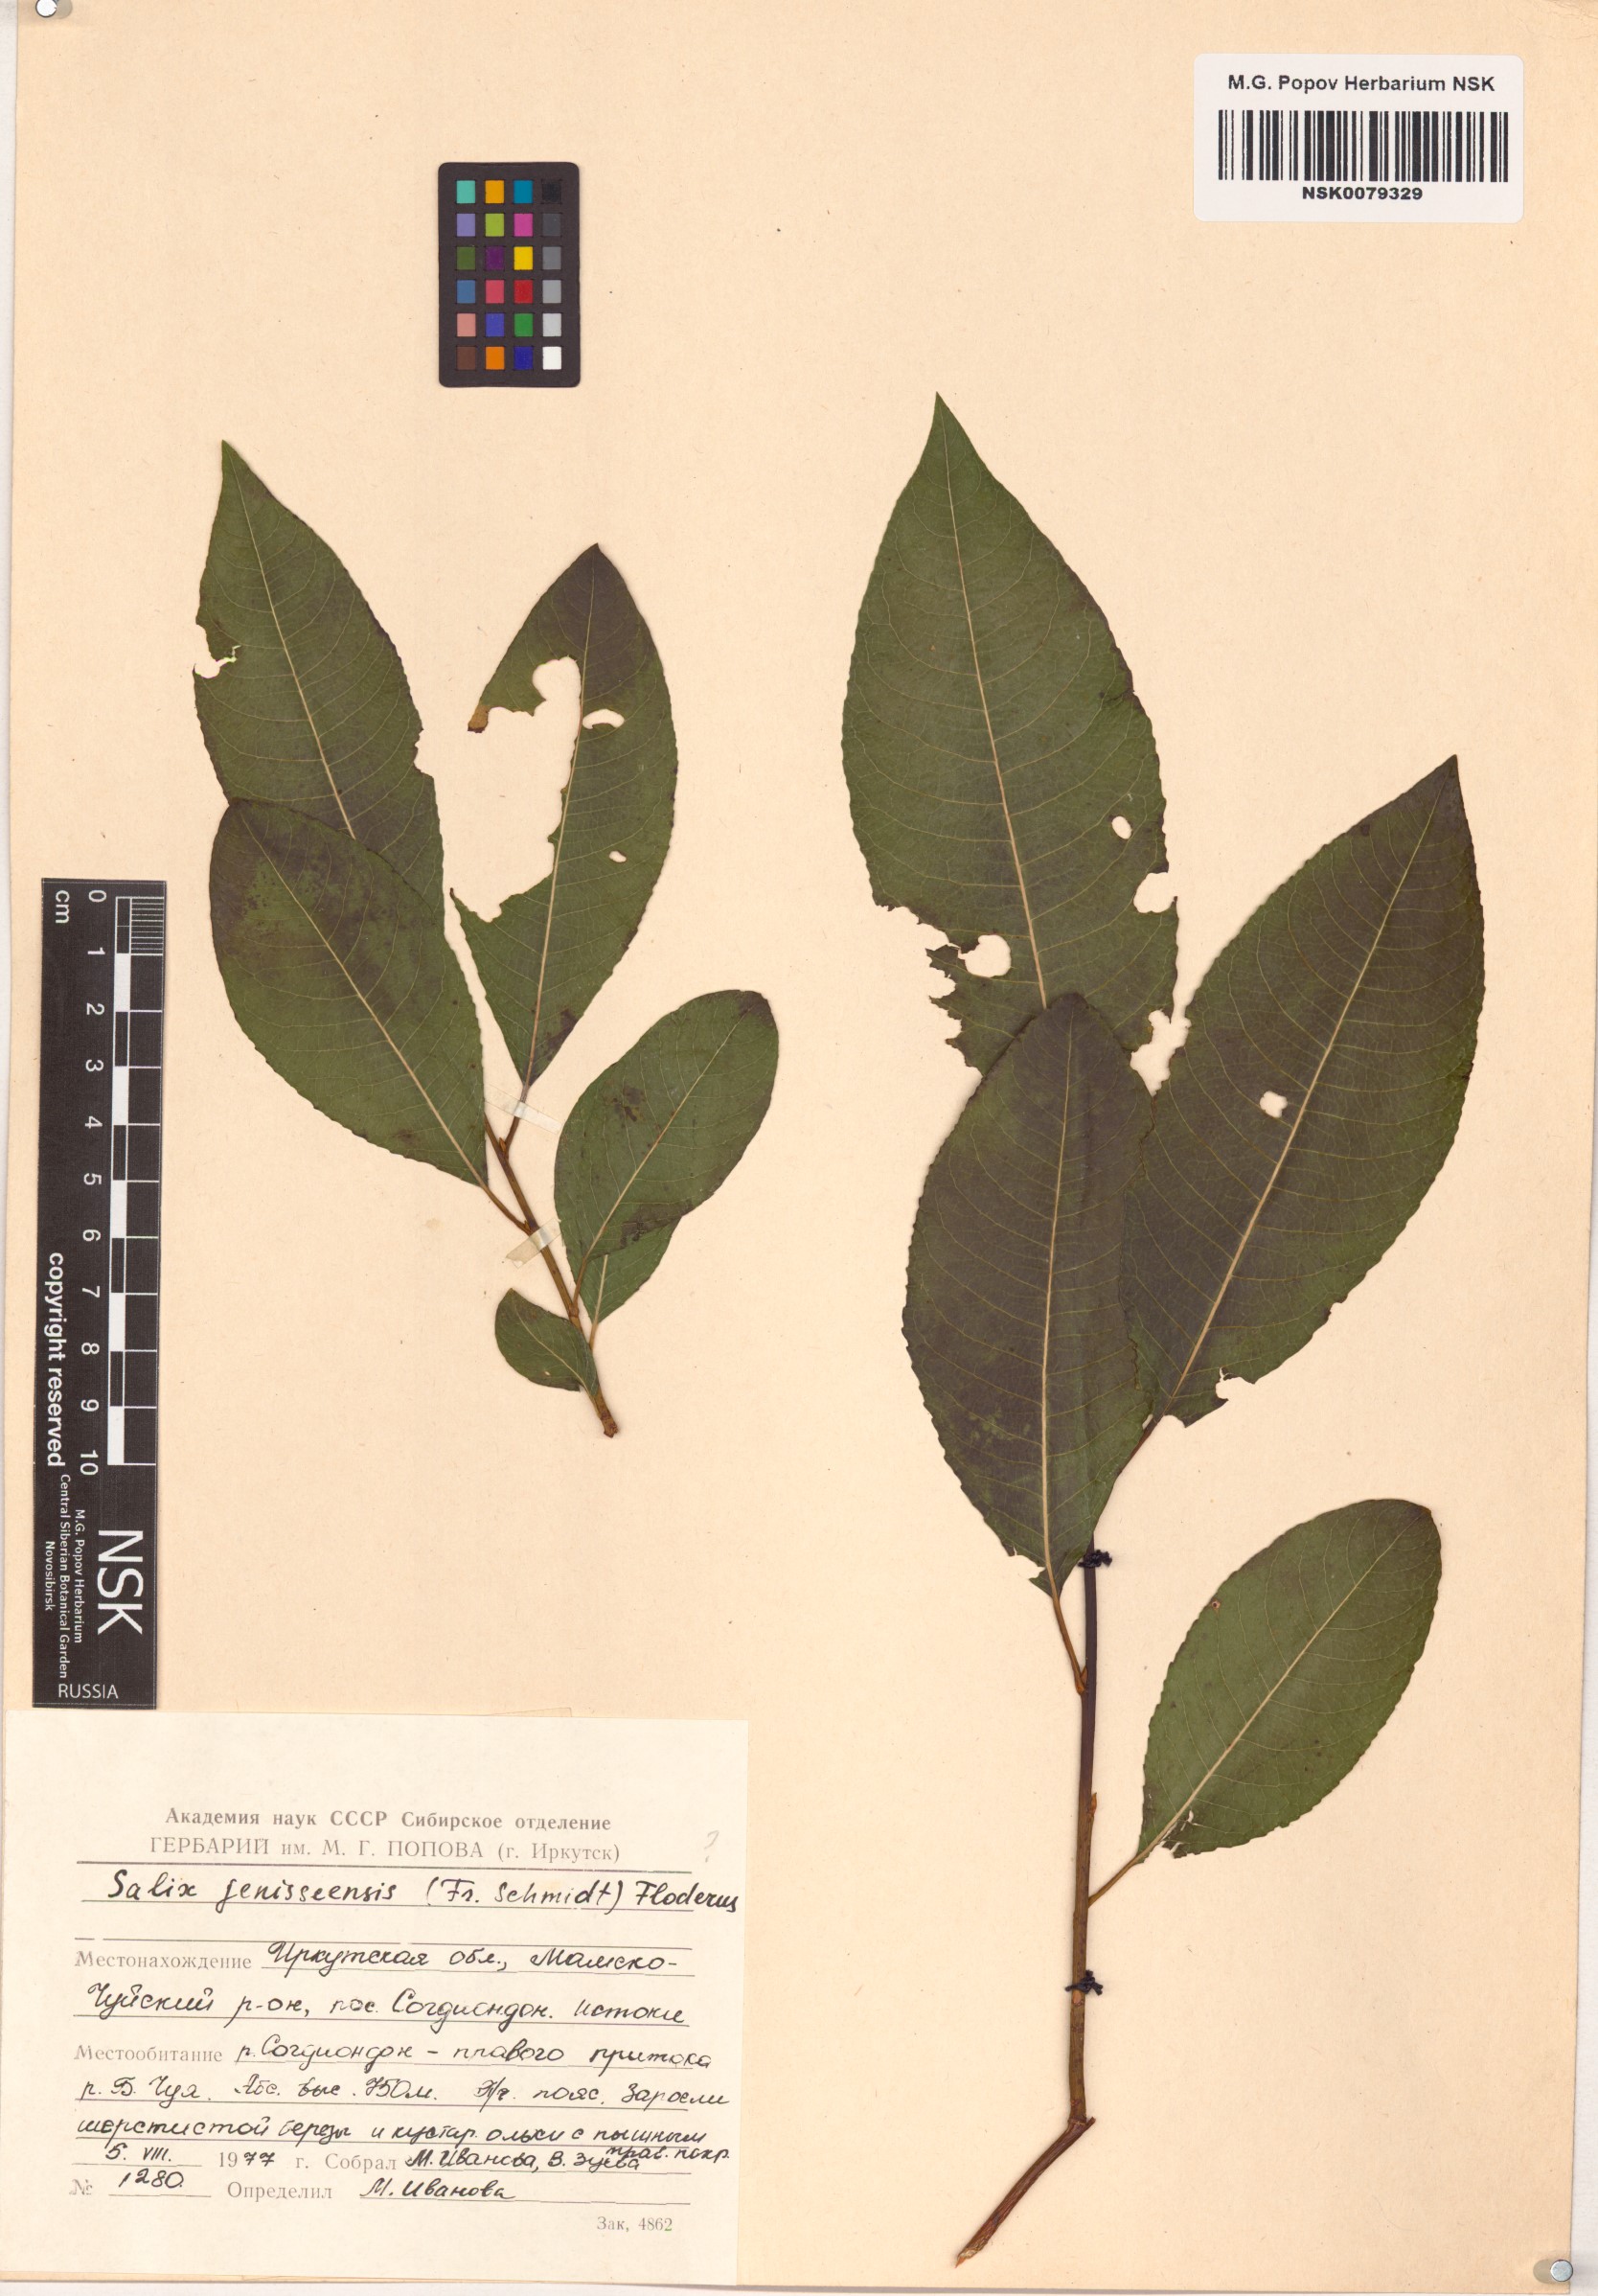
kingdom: Plantae
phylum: Tracheophyta
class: Magnoliopsida
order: Malpighiales
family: Salicaceae
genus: Salix
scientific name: Salix jenisseensis
